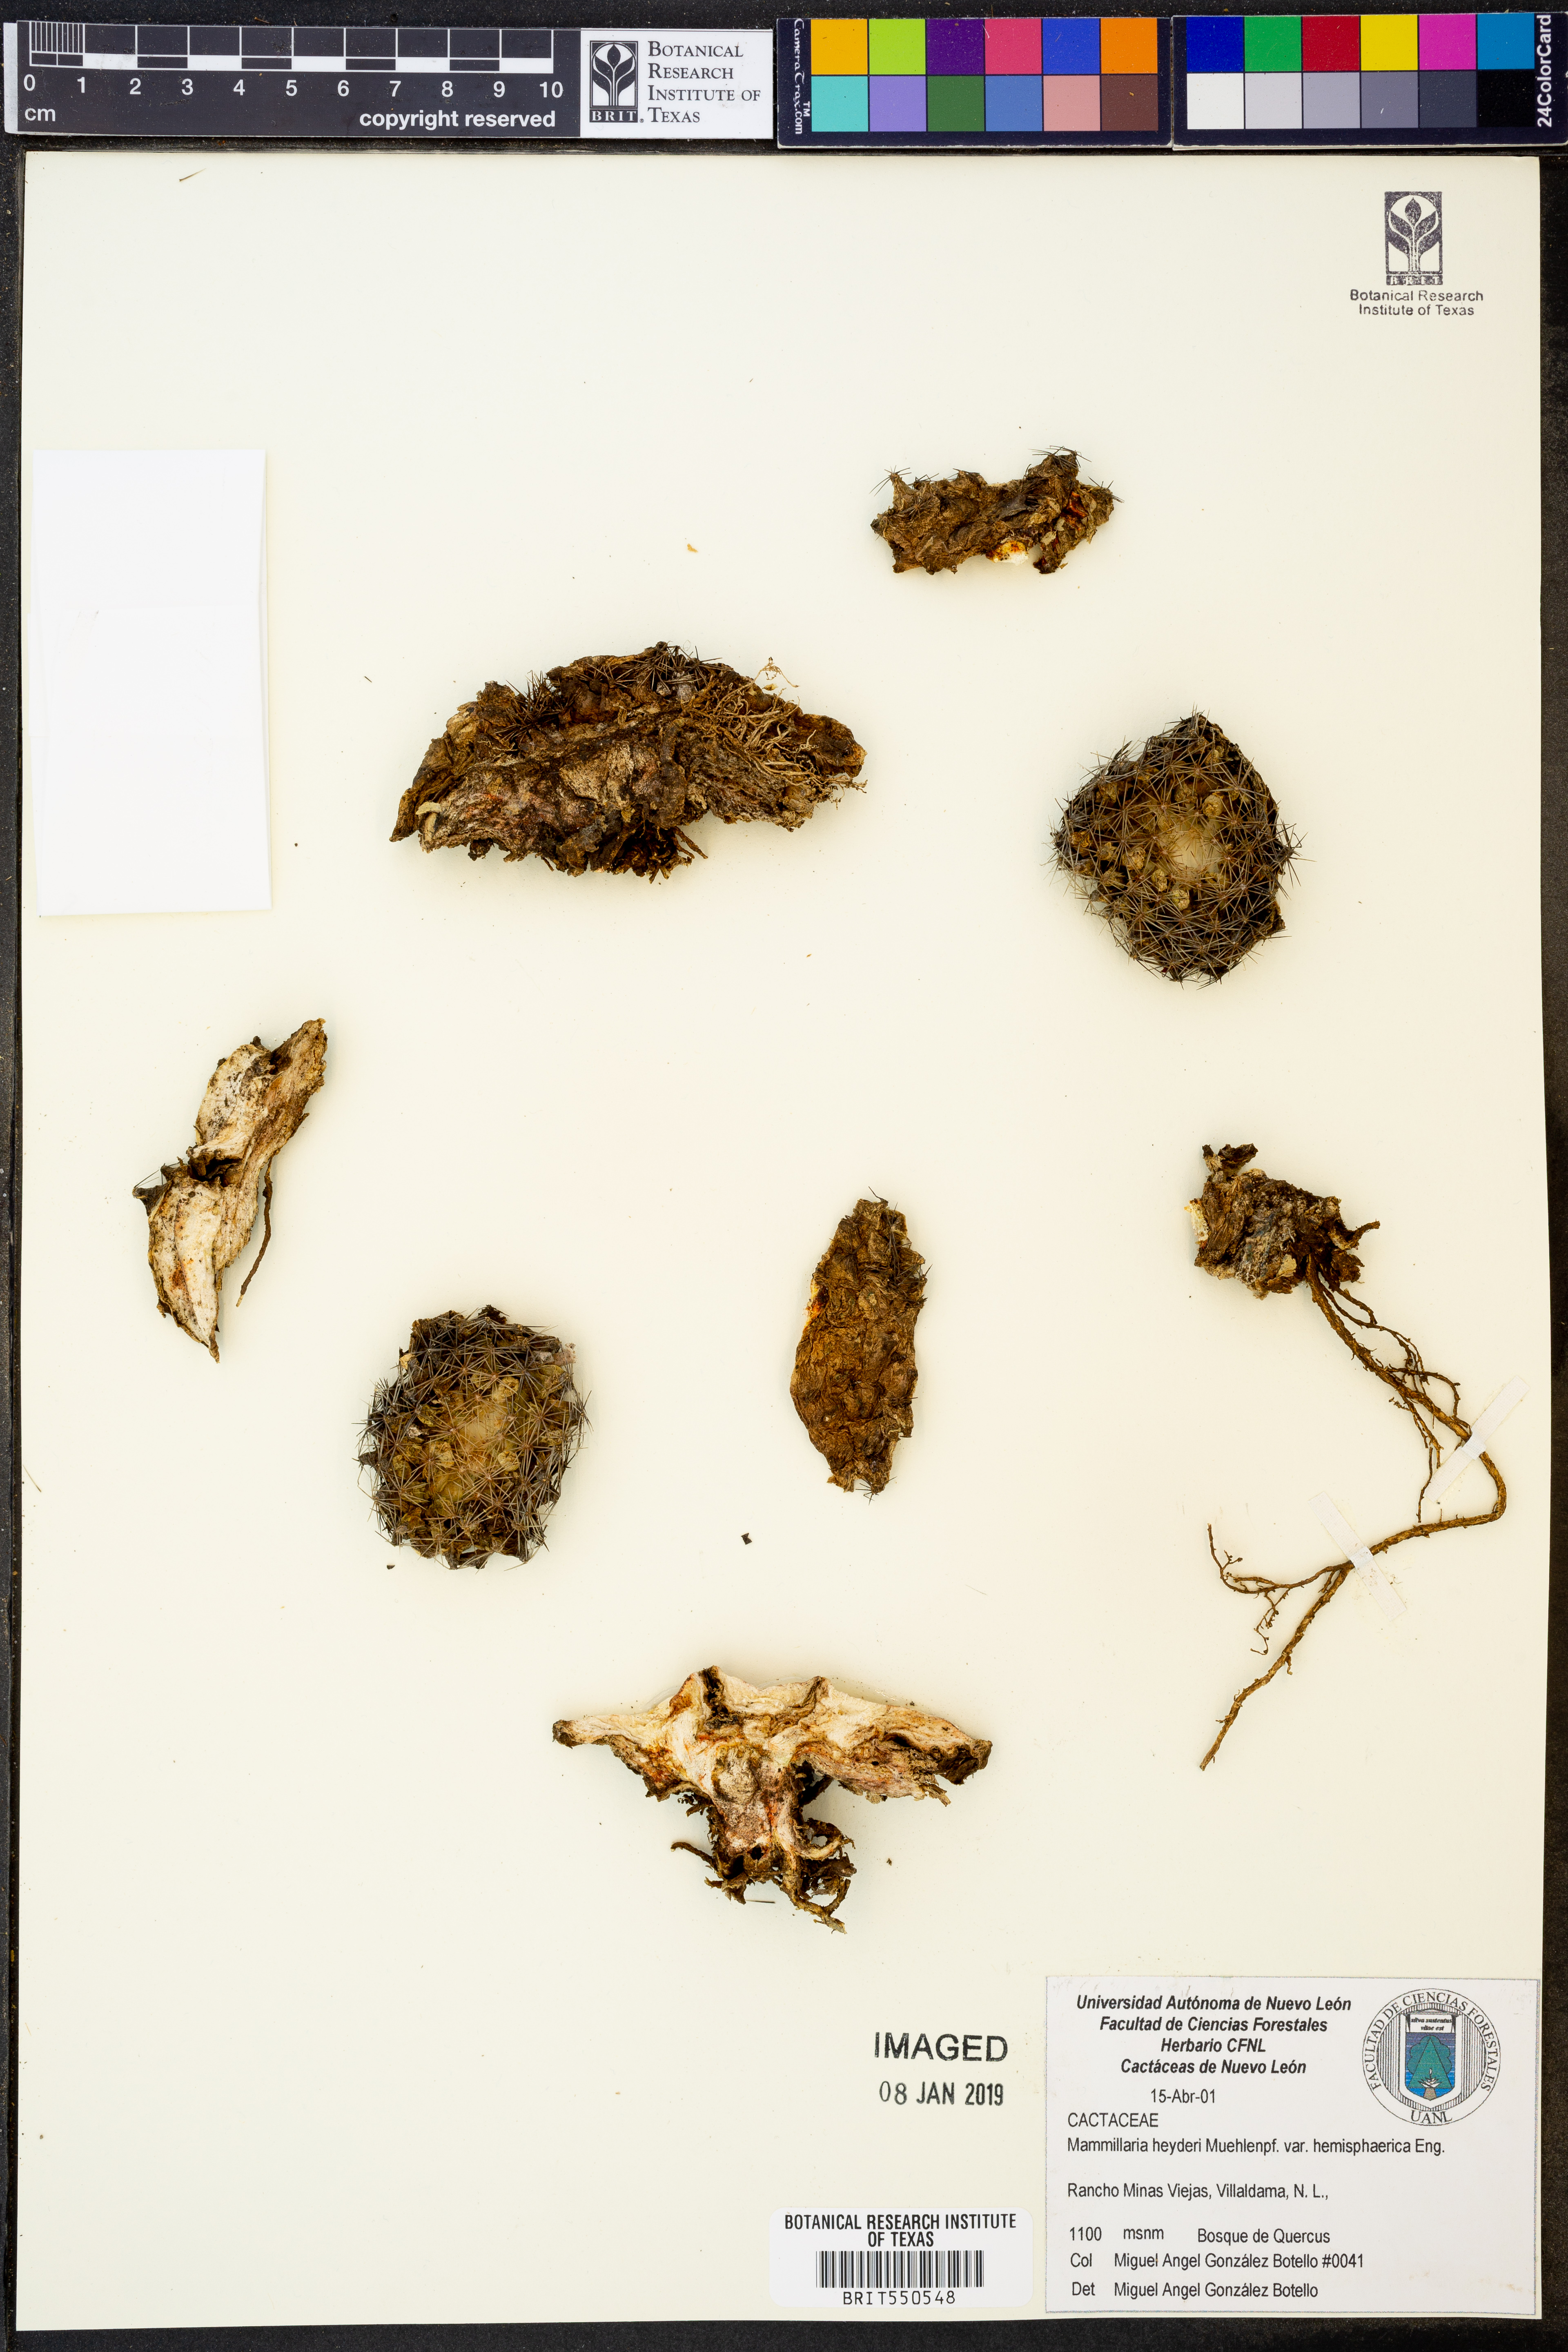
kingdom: Plantae
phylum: Tracheophyta
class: Magnoliopsida
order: Caryophyllales
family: Cactaceae
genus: Mammillaria
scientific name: Mammillaria heyderi
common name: Little nipple cactus
